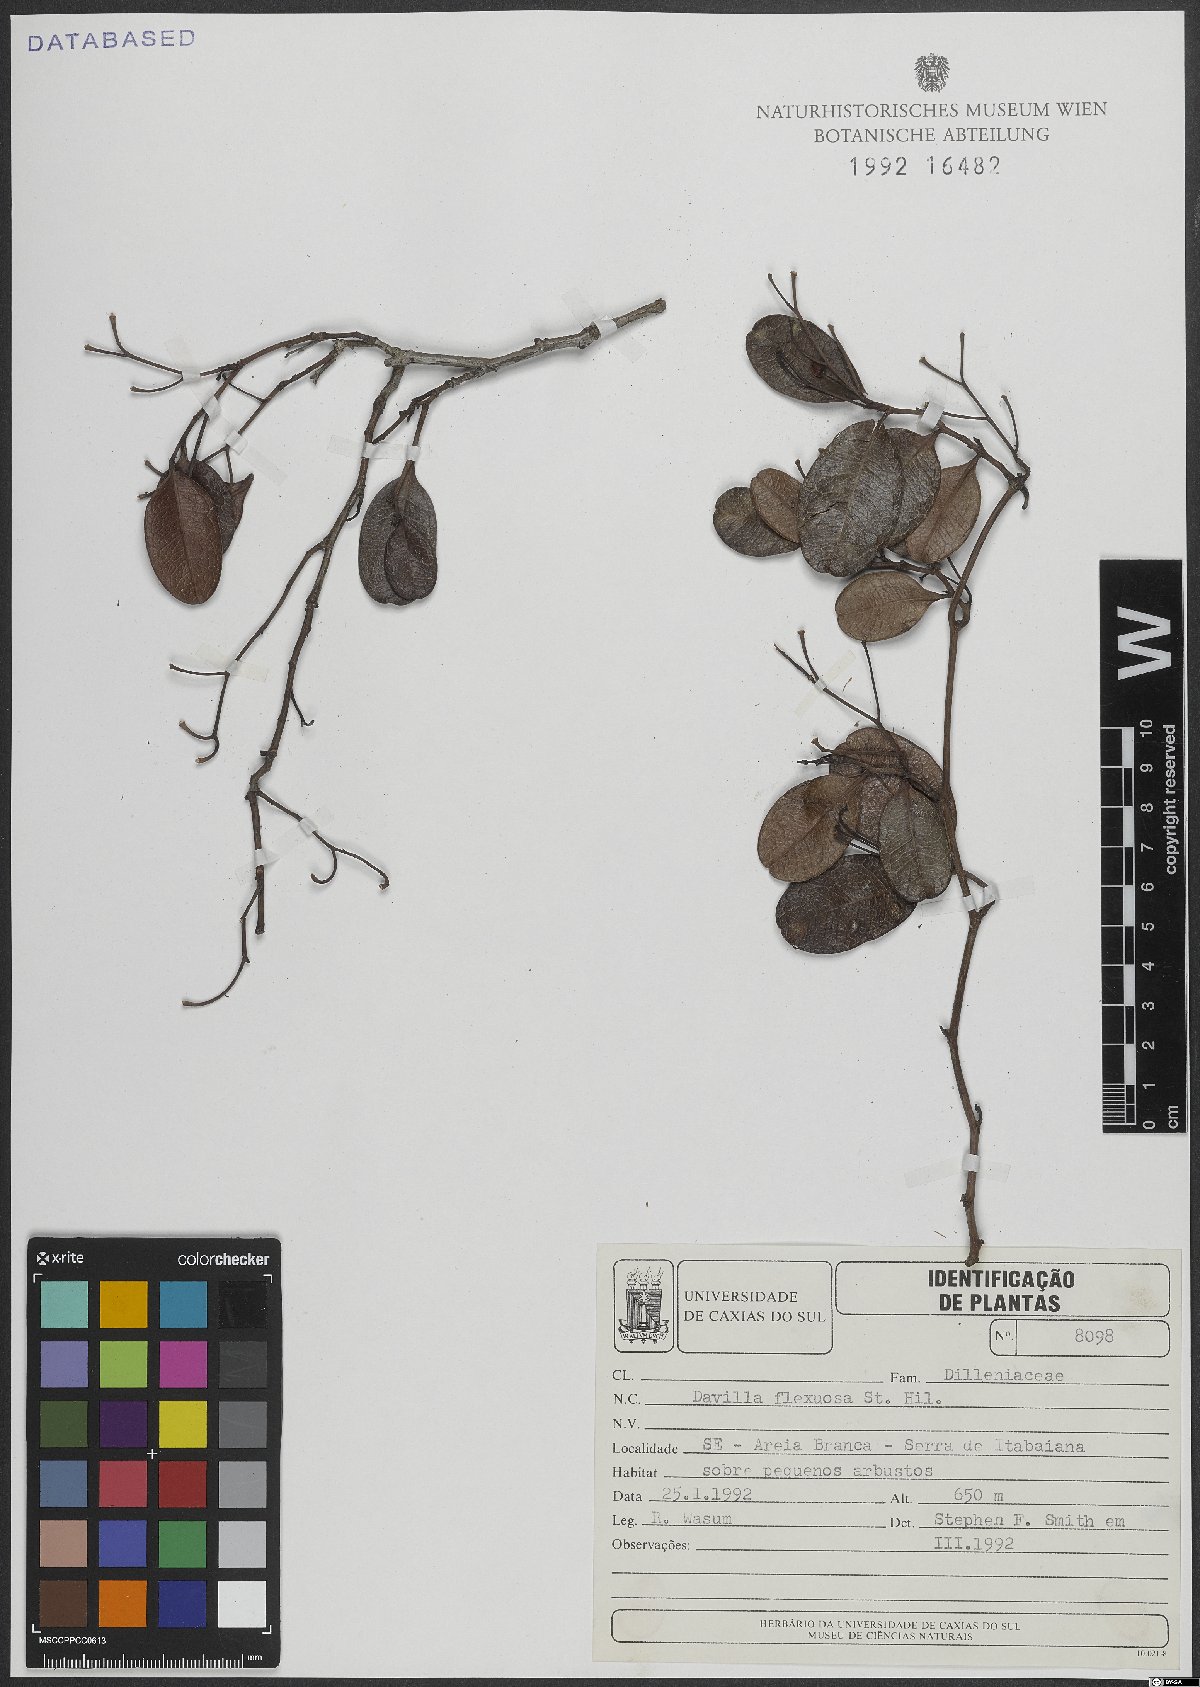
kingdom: Plantae
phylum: Tracheophyta
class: Magnoliopsida
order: Dilleniales
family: Dilleniaceae
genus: Davilla
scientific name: Davilla flexuosa
